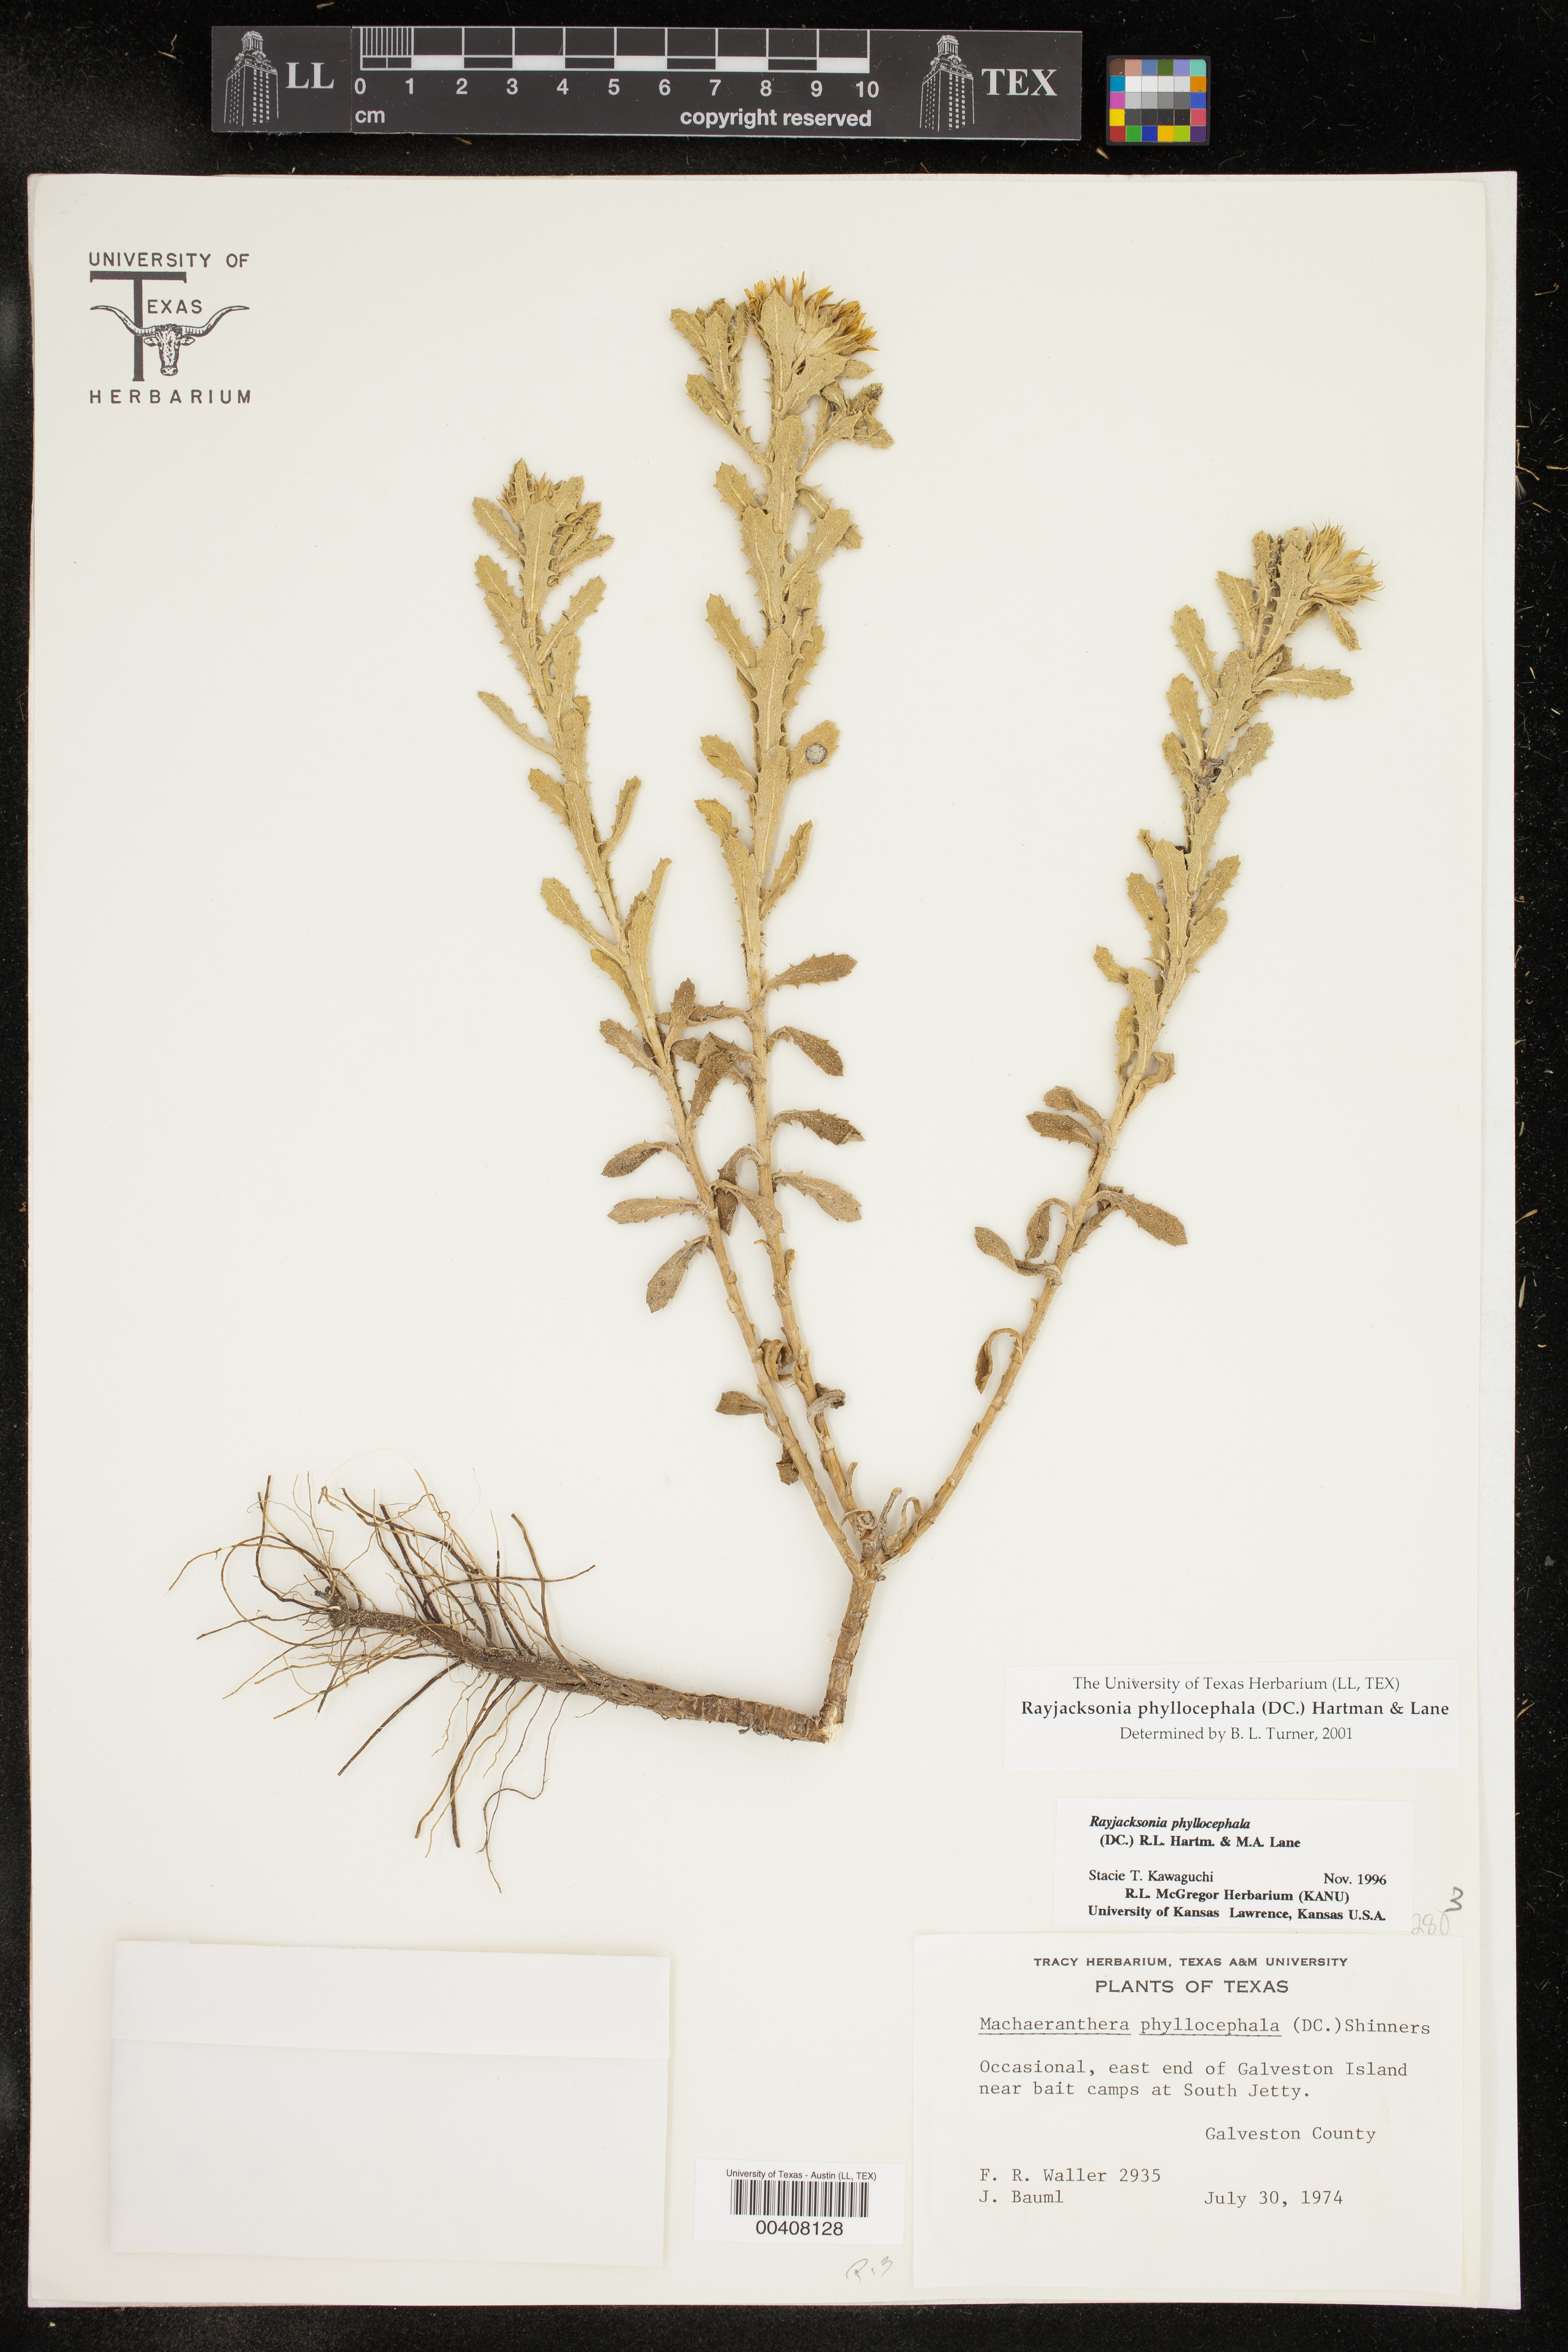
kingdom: Plantae
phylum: Tracheophyta
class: Magnoliopsida
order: Asterales
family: Asteraceae
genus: Rayjacksonia
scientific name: Rayjacksonia phyllocephala
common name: Gulf coast camphor daisy
